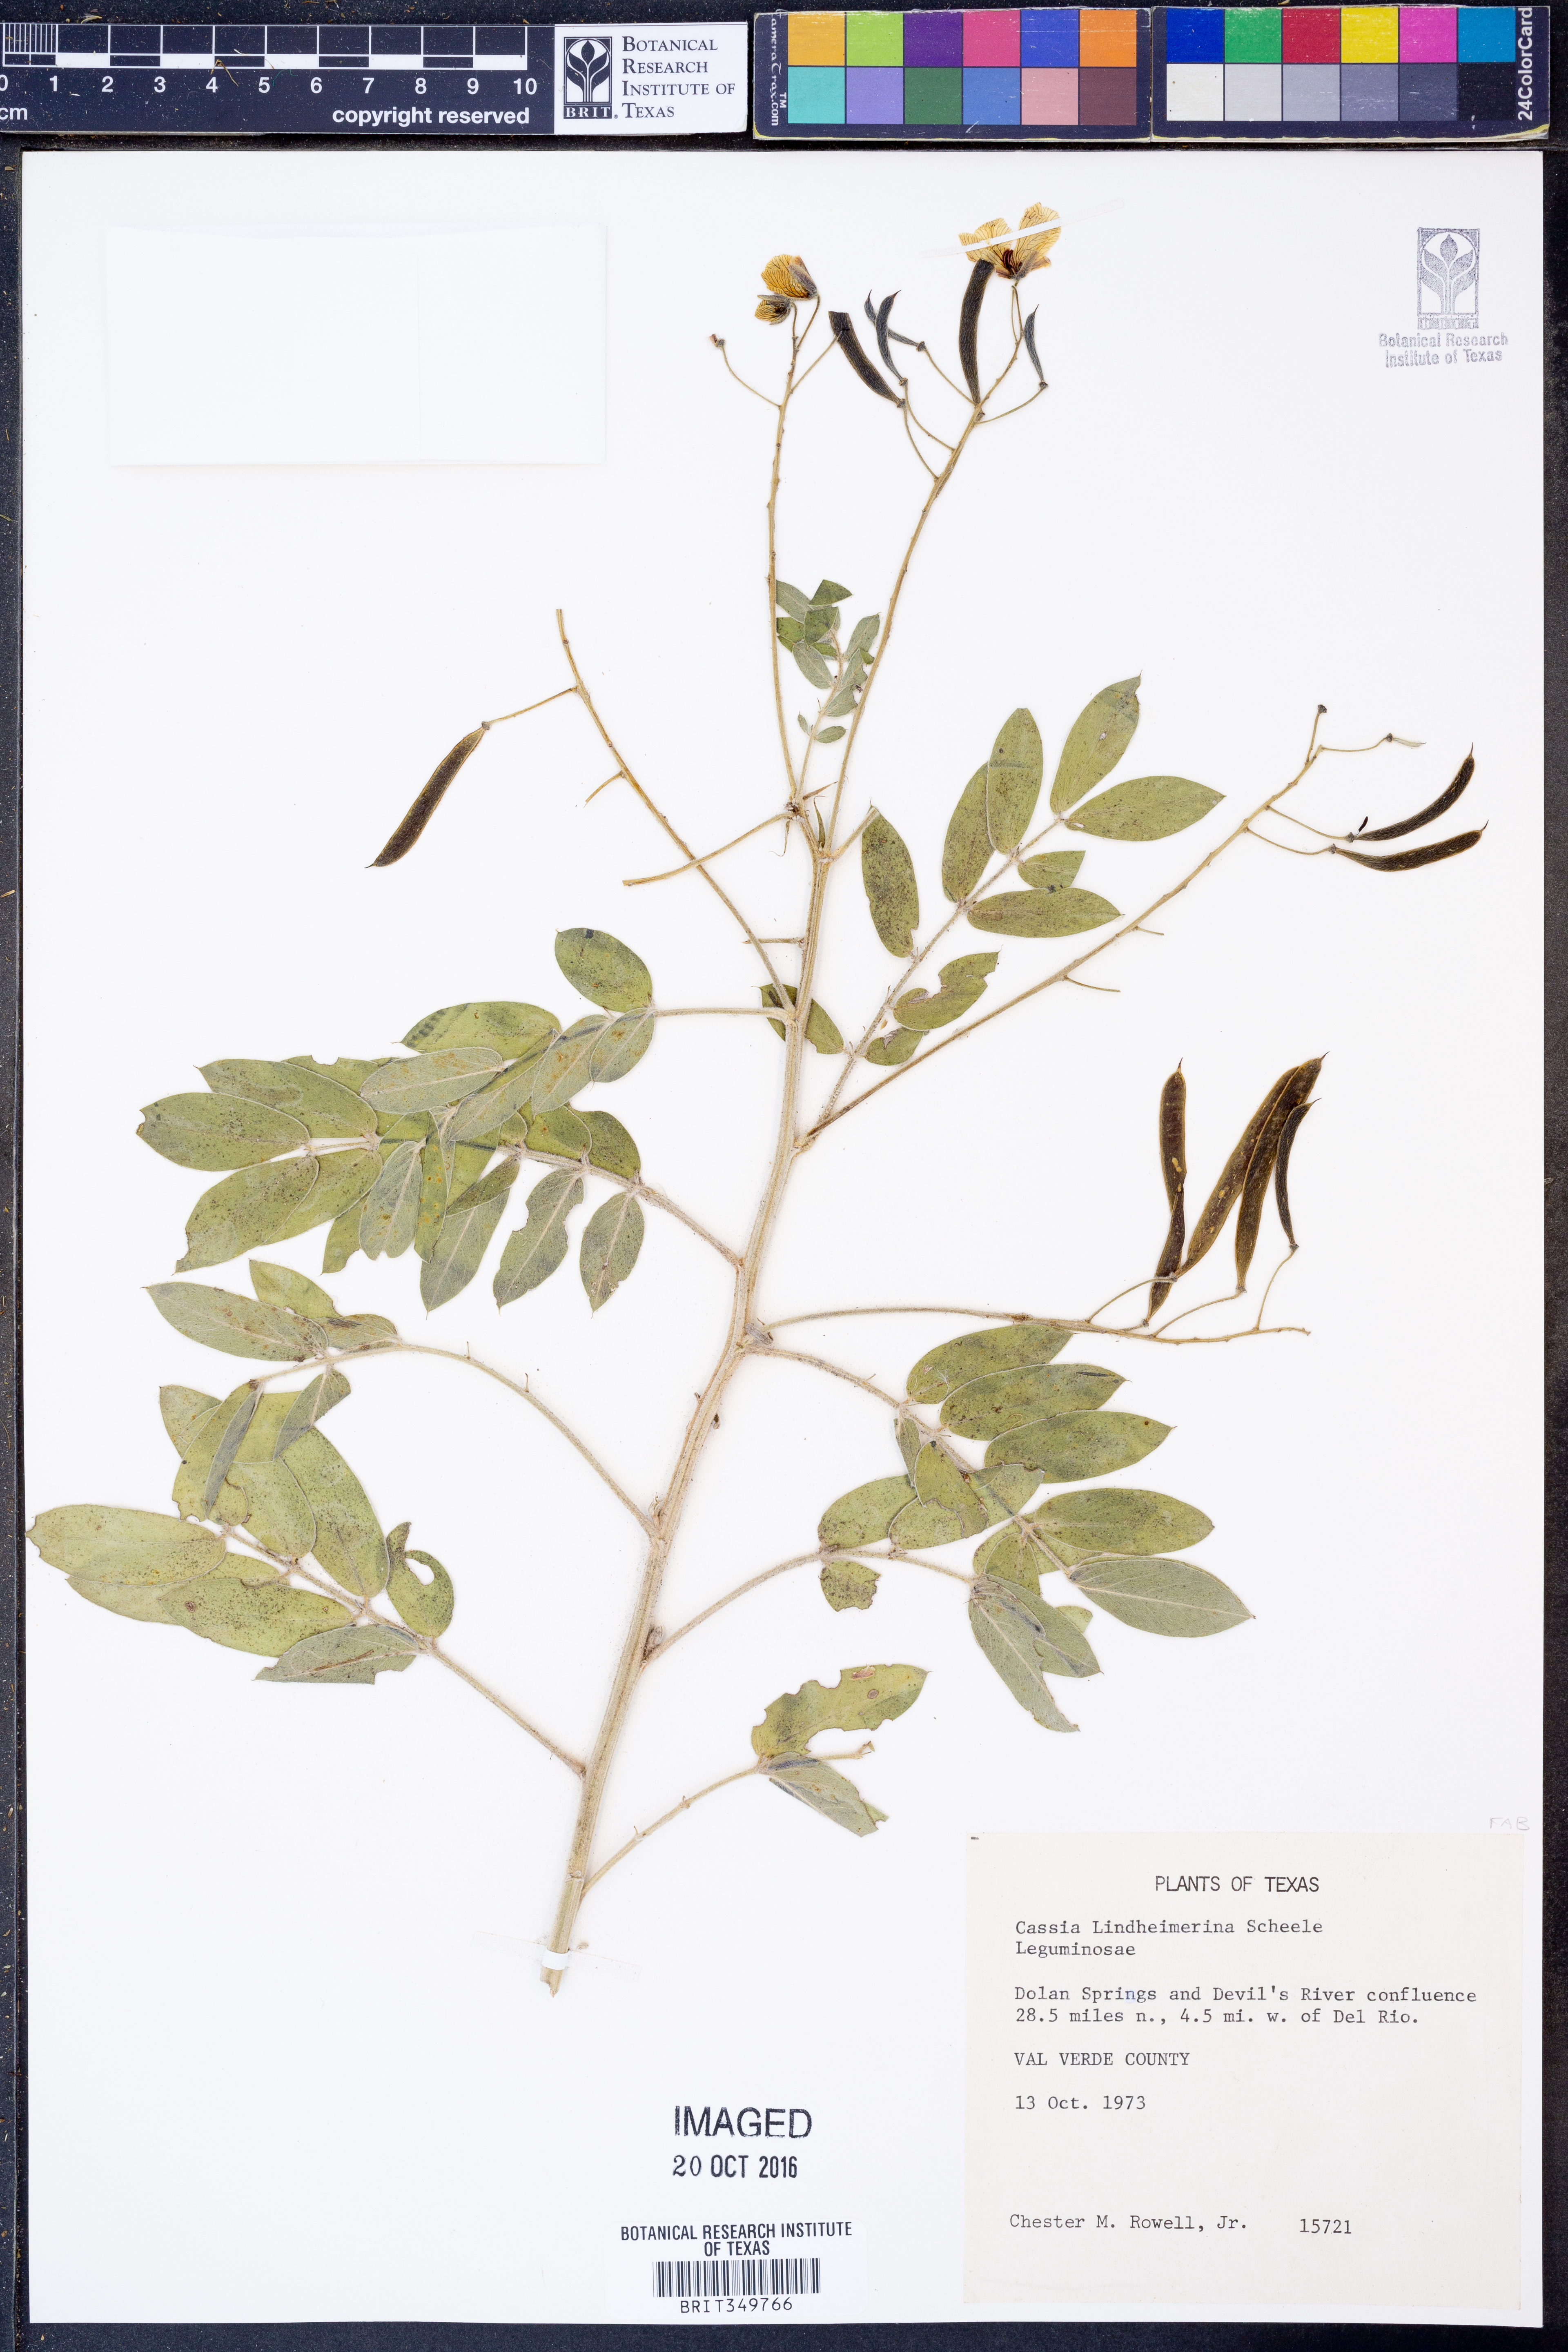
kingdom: Plantae
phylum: Tracheophyta
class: Magnoliopsida
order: Fabales
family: Fabaceae
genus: Senna
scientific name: Senna lindheimeriana
